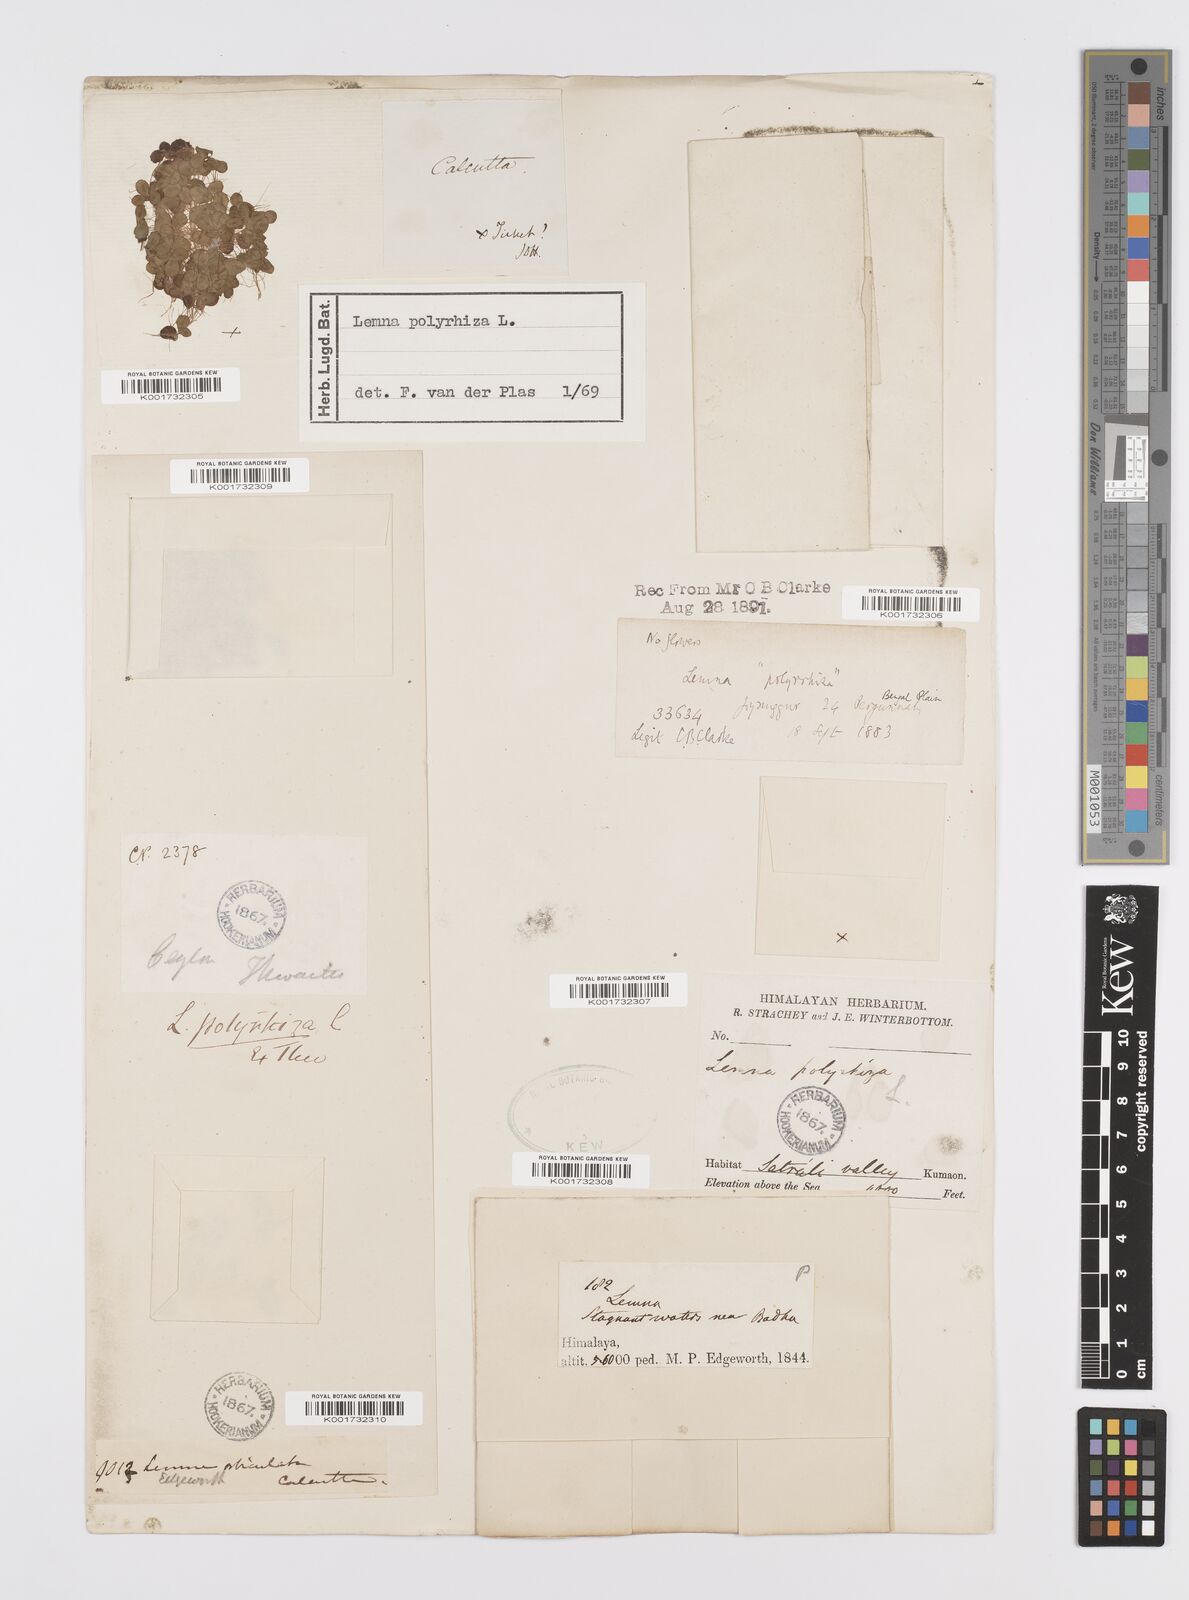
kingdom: Plantae
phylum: Tracheophyta
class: Liliopsida
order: Alismatales
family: Araceae
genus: Spirodela
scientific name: Spirodela polyrhiza
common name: Great duckweed
